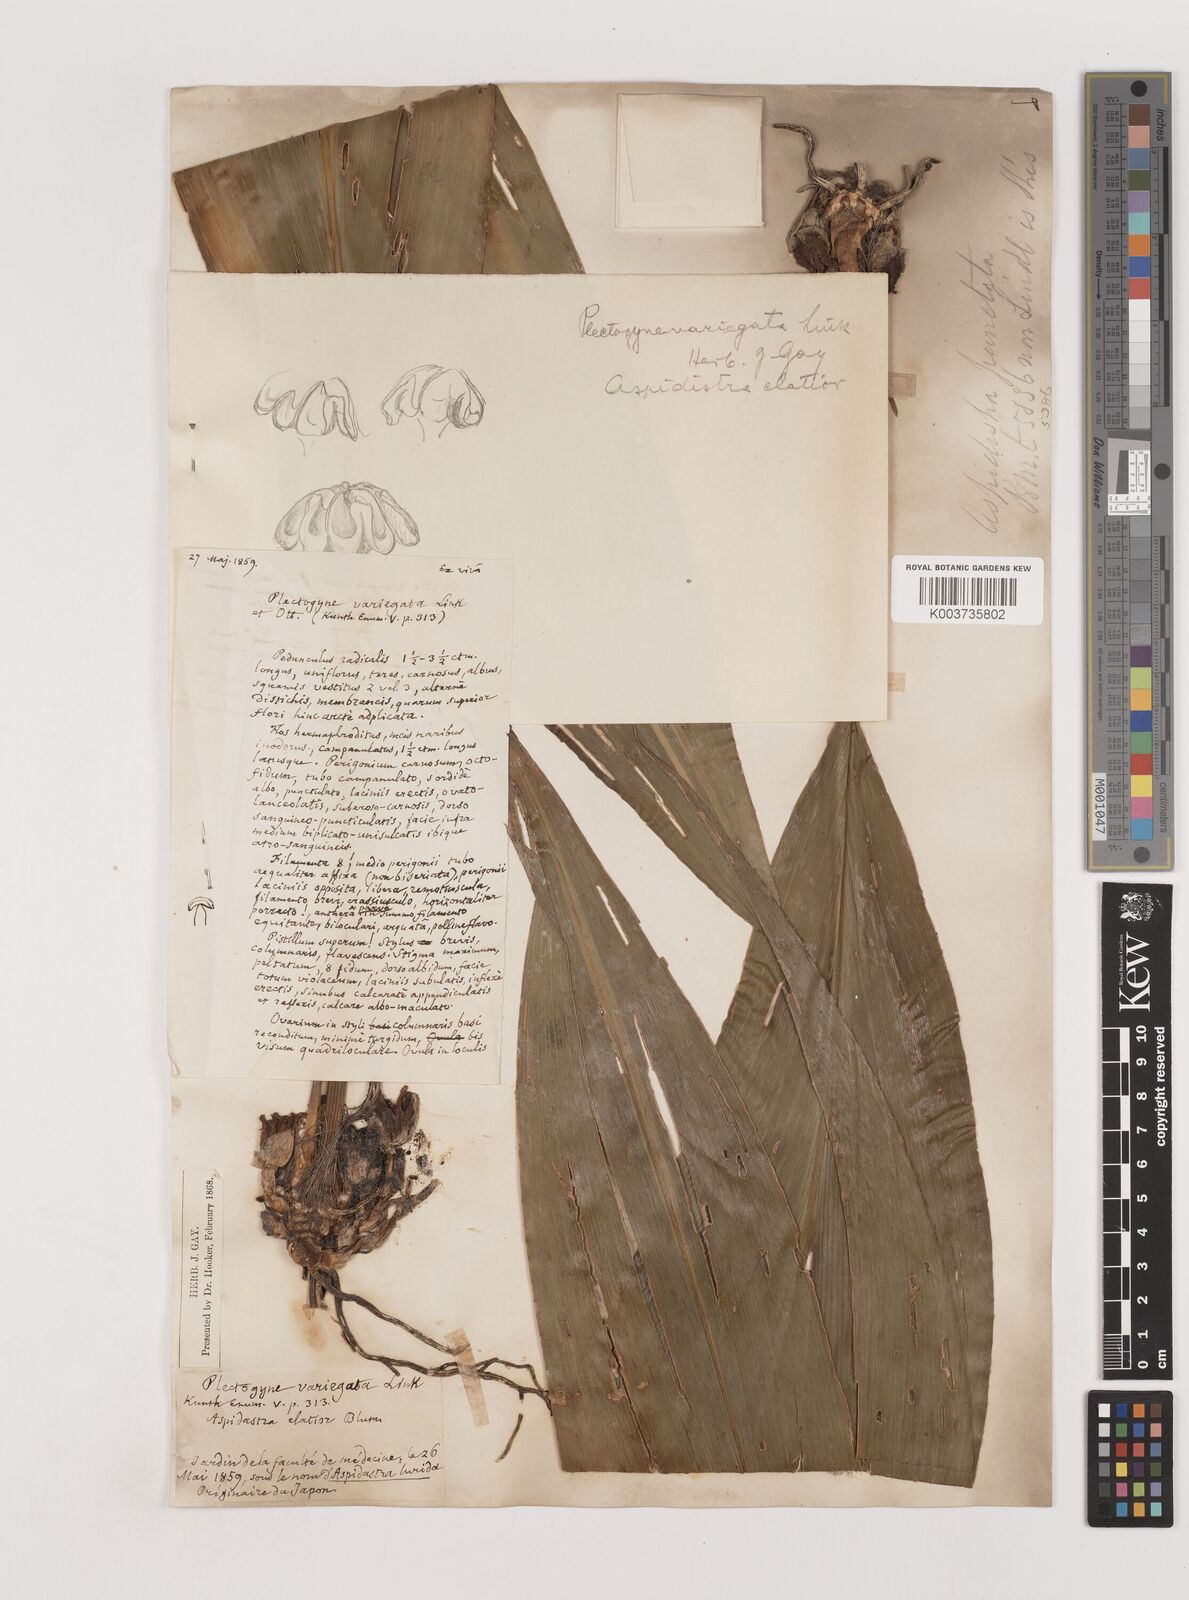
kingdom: Plantae
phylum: Tracheophyta
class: Liliopsida
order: Asparagales
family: Asparagaceae
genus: Aspidistra
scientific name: Aspidistra elatior
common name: Cast-iron-plant
